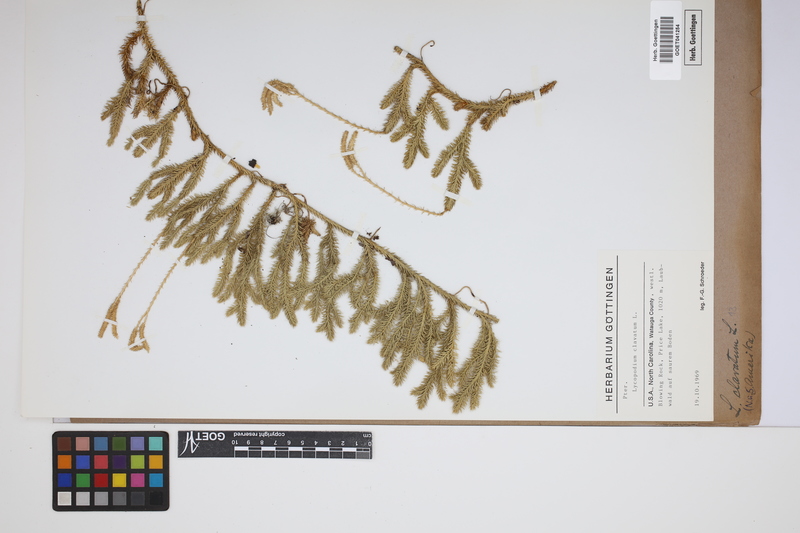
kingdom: Plantae
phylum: Tracheophyta
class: Lycopodiopsida
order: Lycopodiales
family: Lycopodiaceae
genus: Lycopodium
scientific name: Lycopodium clavatum
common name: Stag's-horn clubmoss
